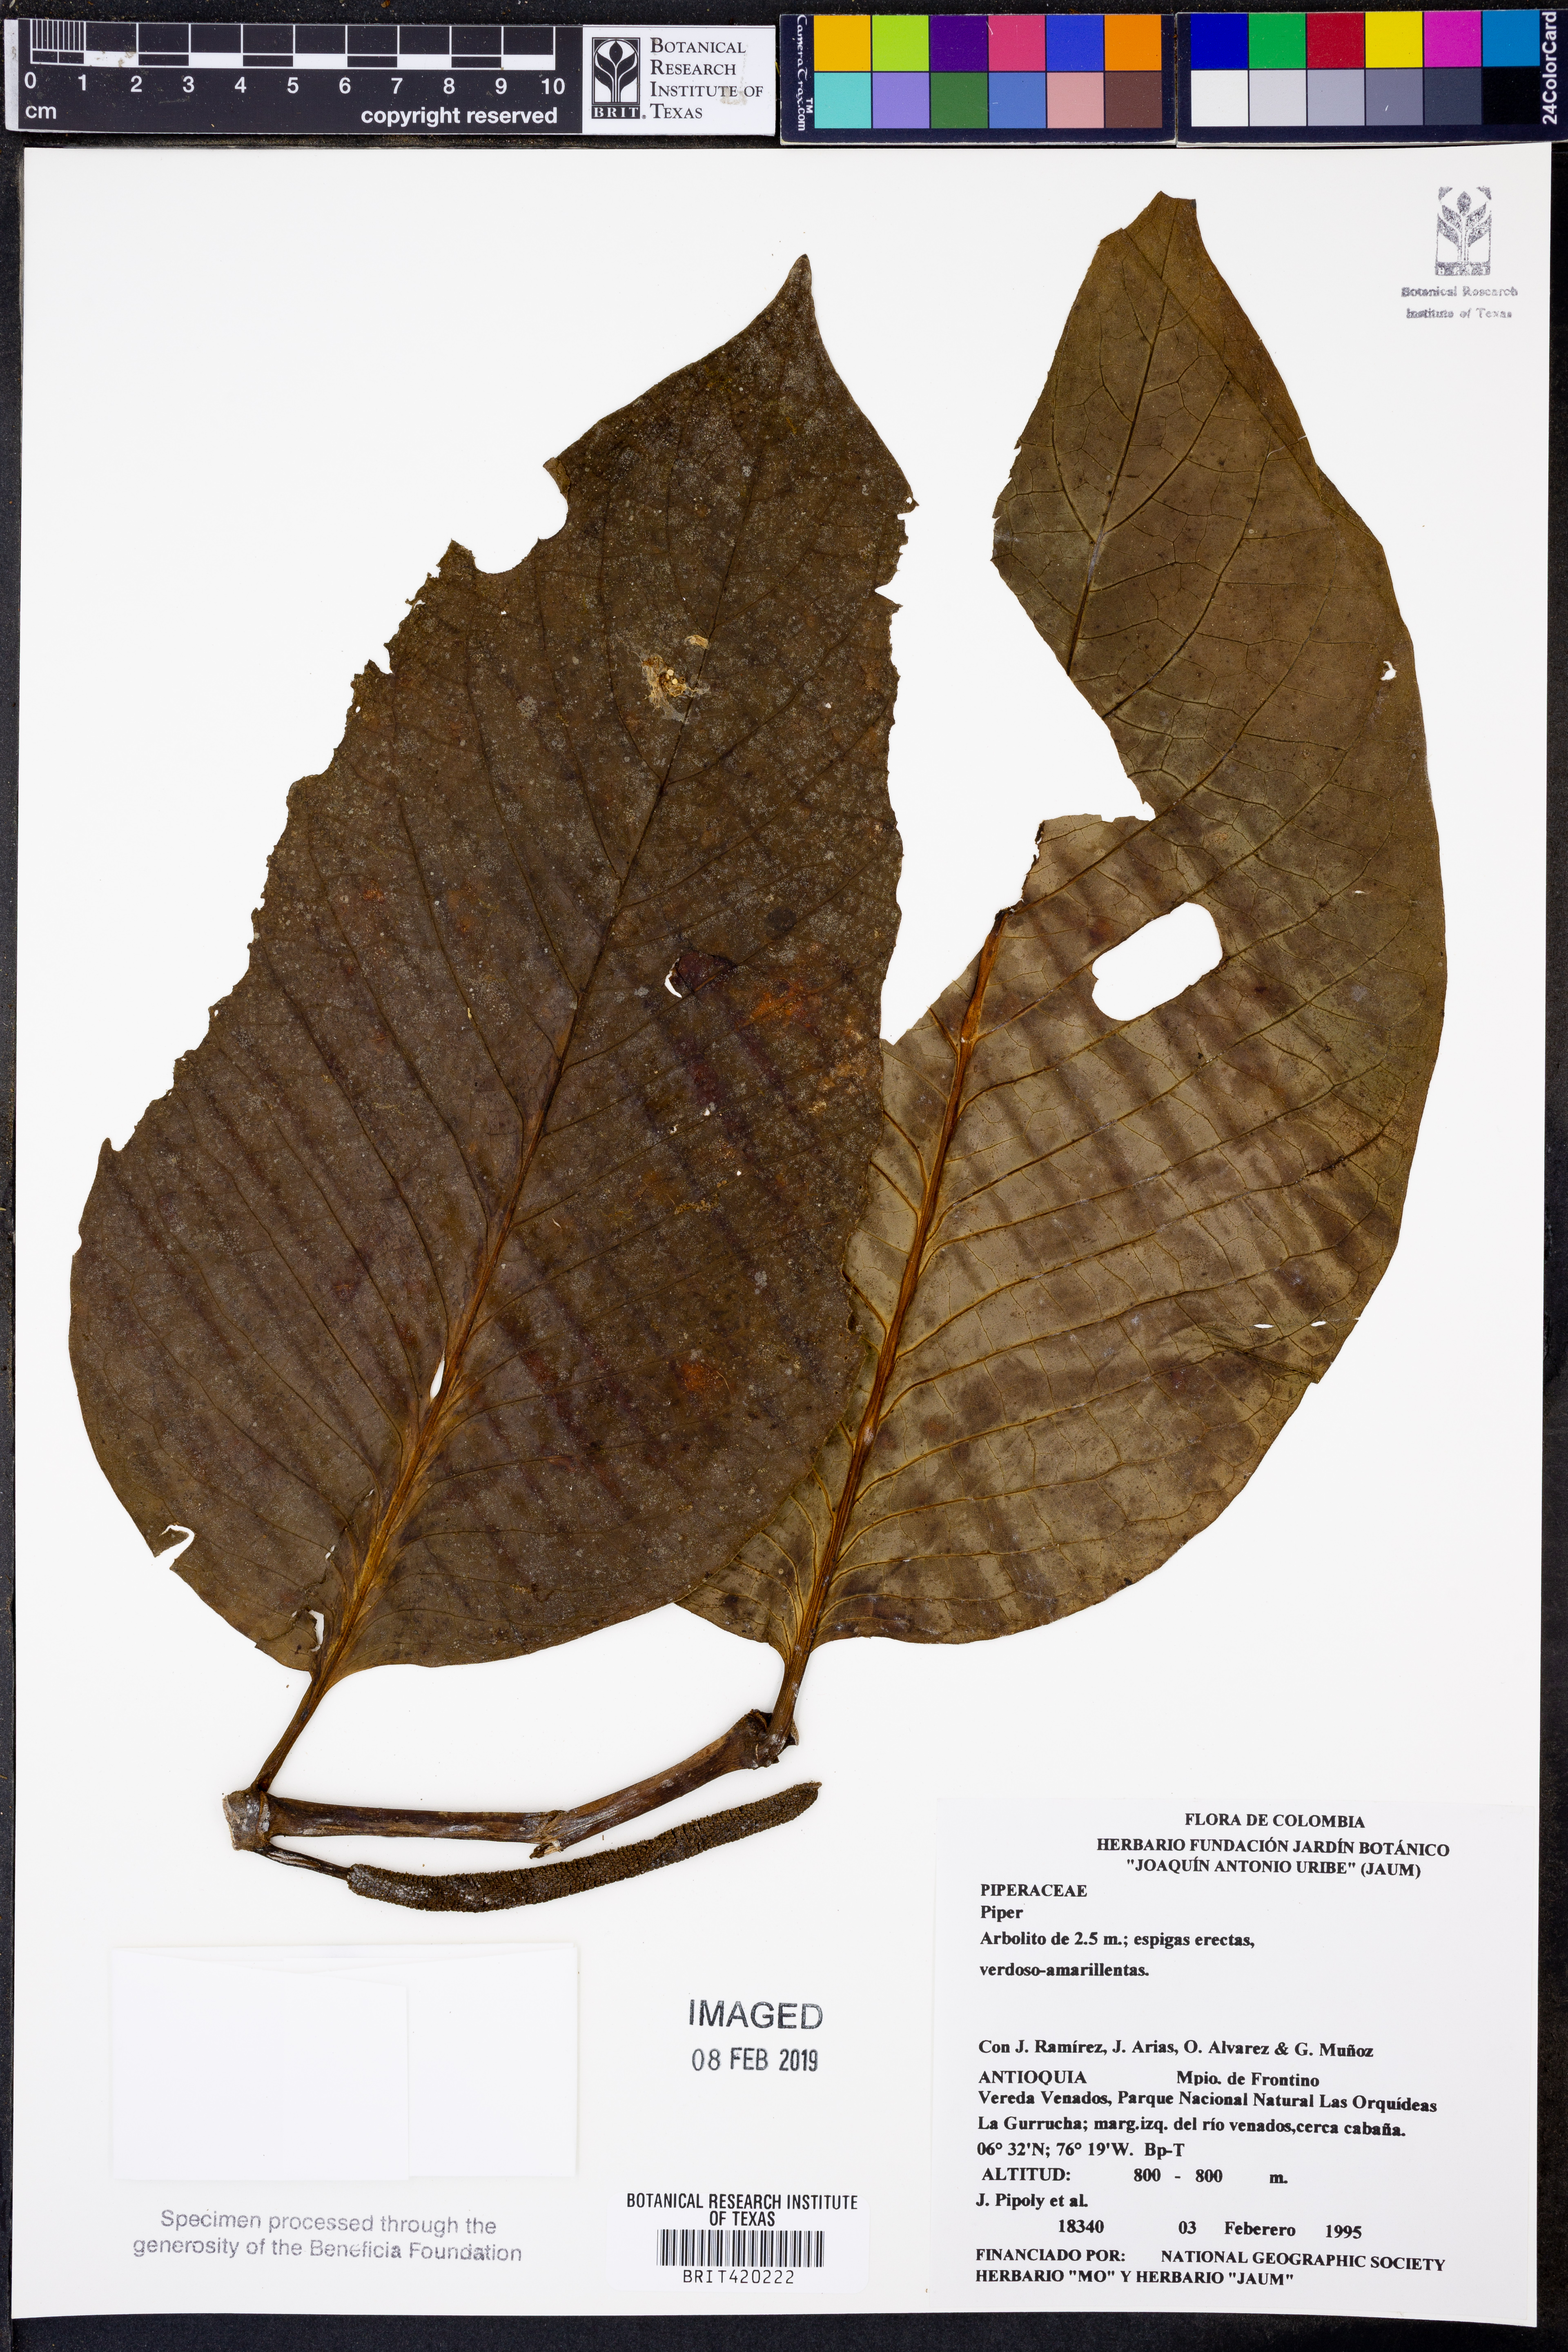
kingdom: Plantae
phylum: Tracheophyta
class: Magnoliopsida
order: Piperales
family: Piperaceae
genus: Piper
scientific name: Piper
